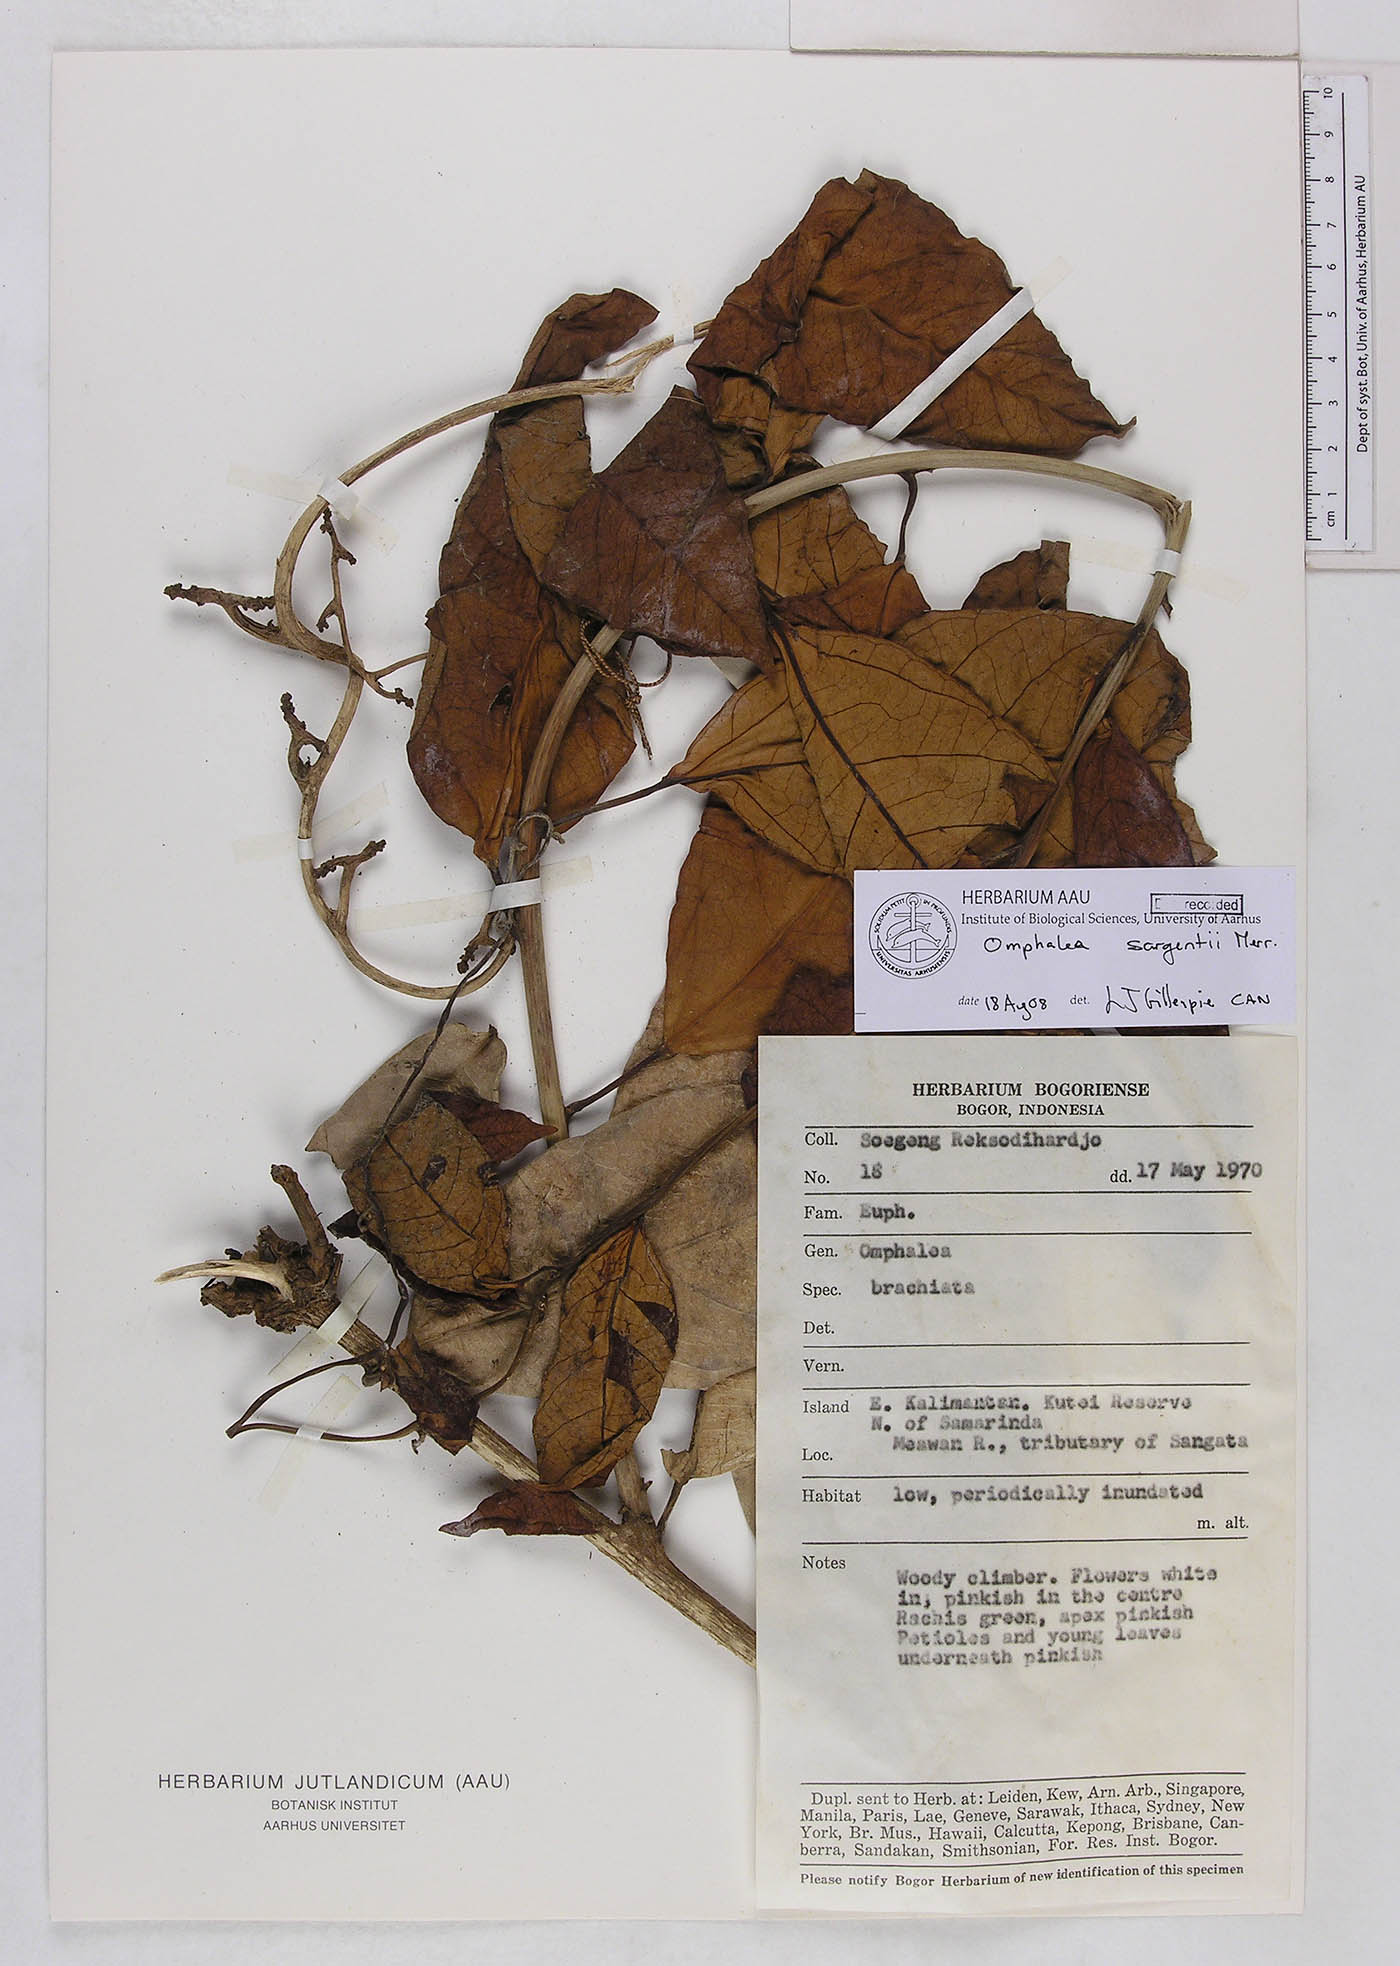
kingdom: Plantae
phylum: Tracheophyta
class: Magnoliopsida
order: Malpighiales
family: Euphorbiaceae
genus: Omphalea
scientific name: Omphalea sargentii
